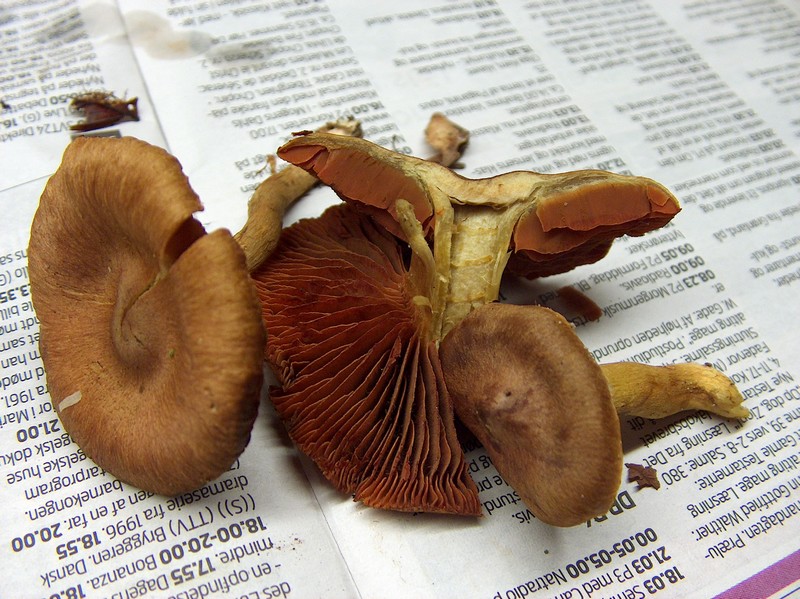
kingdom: Fungi
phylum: Basidiomycota
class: Agaricomycetes
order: Agaricales
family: Cortinariaceae
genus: Cortinarius
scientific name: Cortinarius malicorius
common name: grønkødet slørhat
